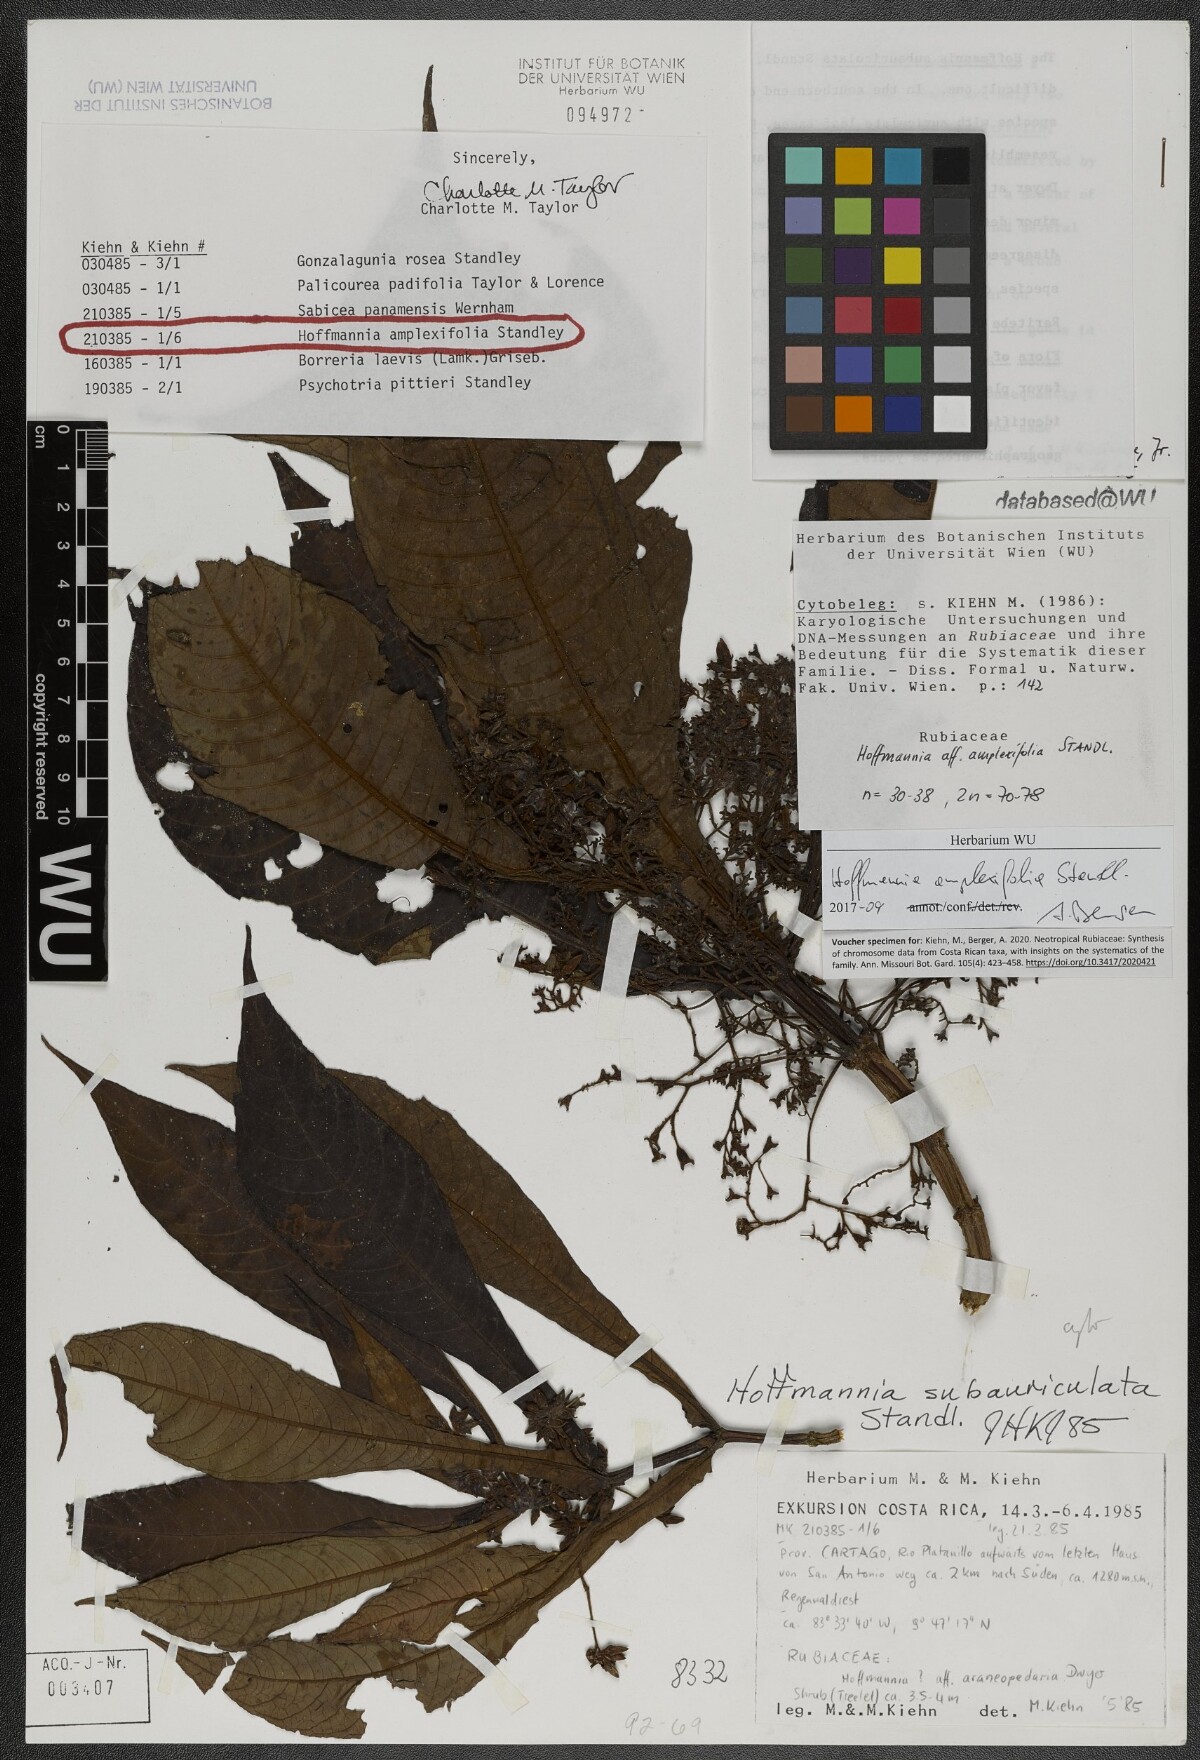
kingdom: Plantae
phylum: Tracheophyta
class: Magnoliopsida
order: Gentianales
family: Rubiaceae
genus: Hoffmannia
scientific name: Hoffmannia amplexifolia
